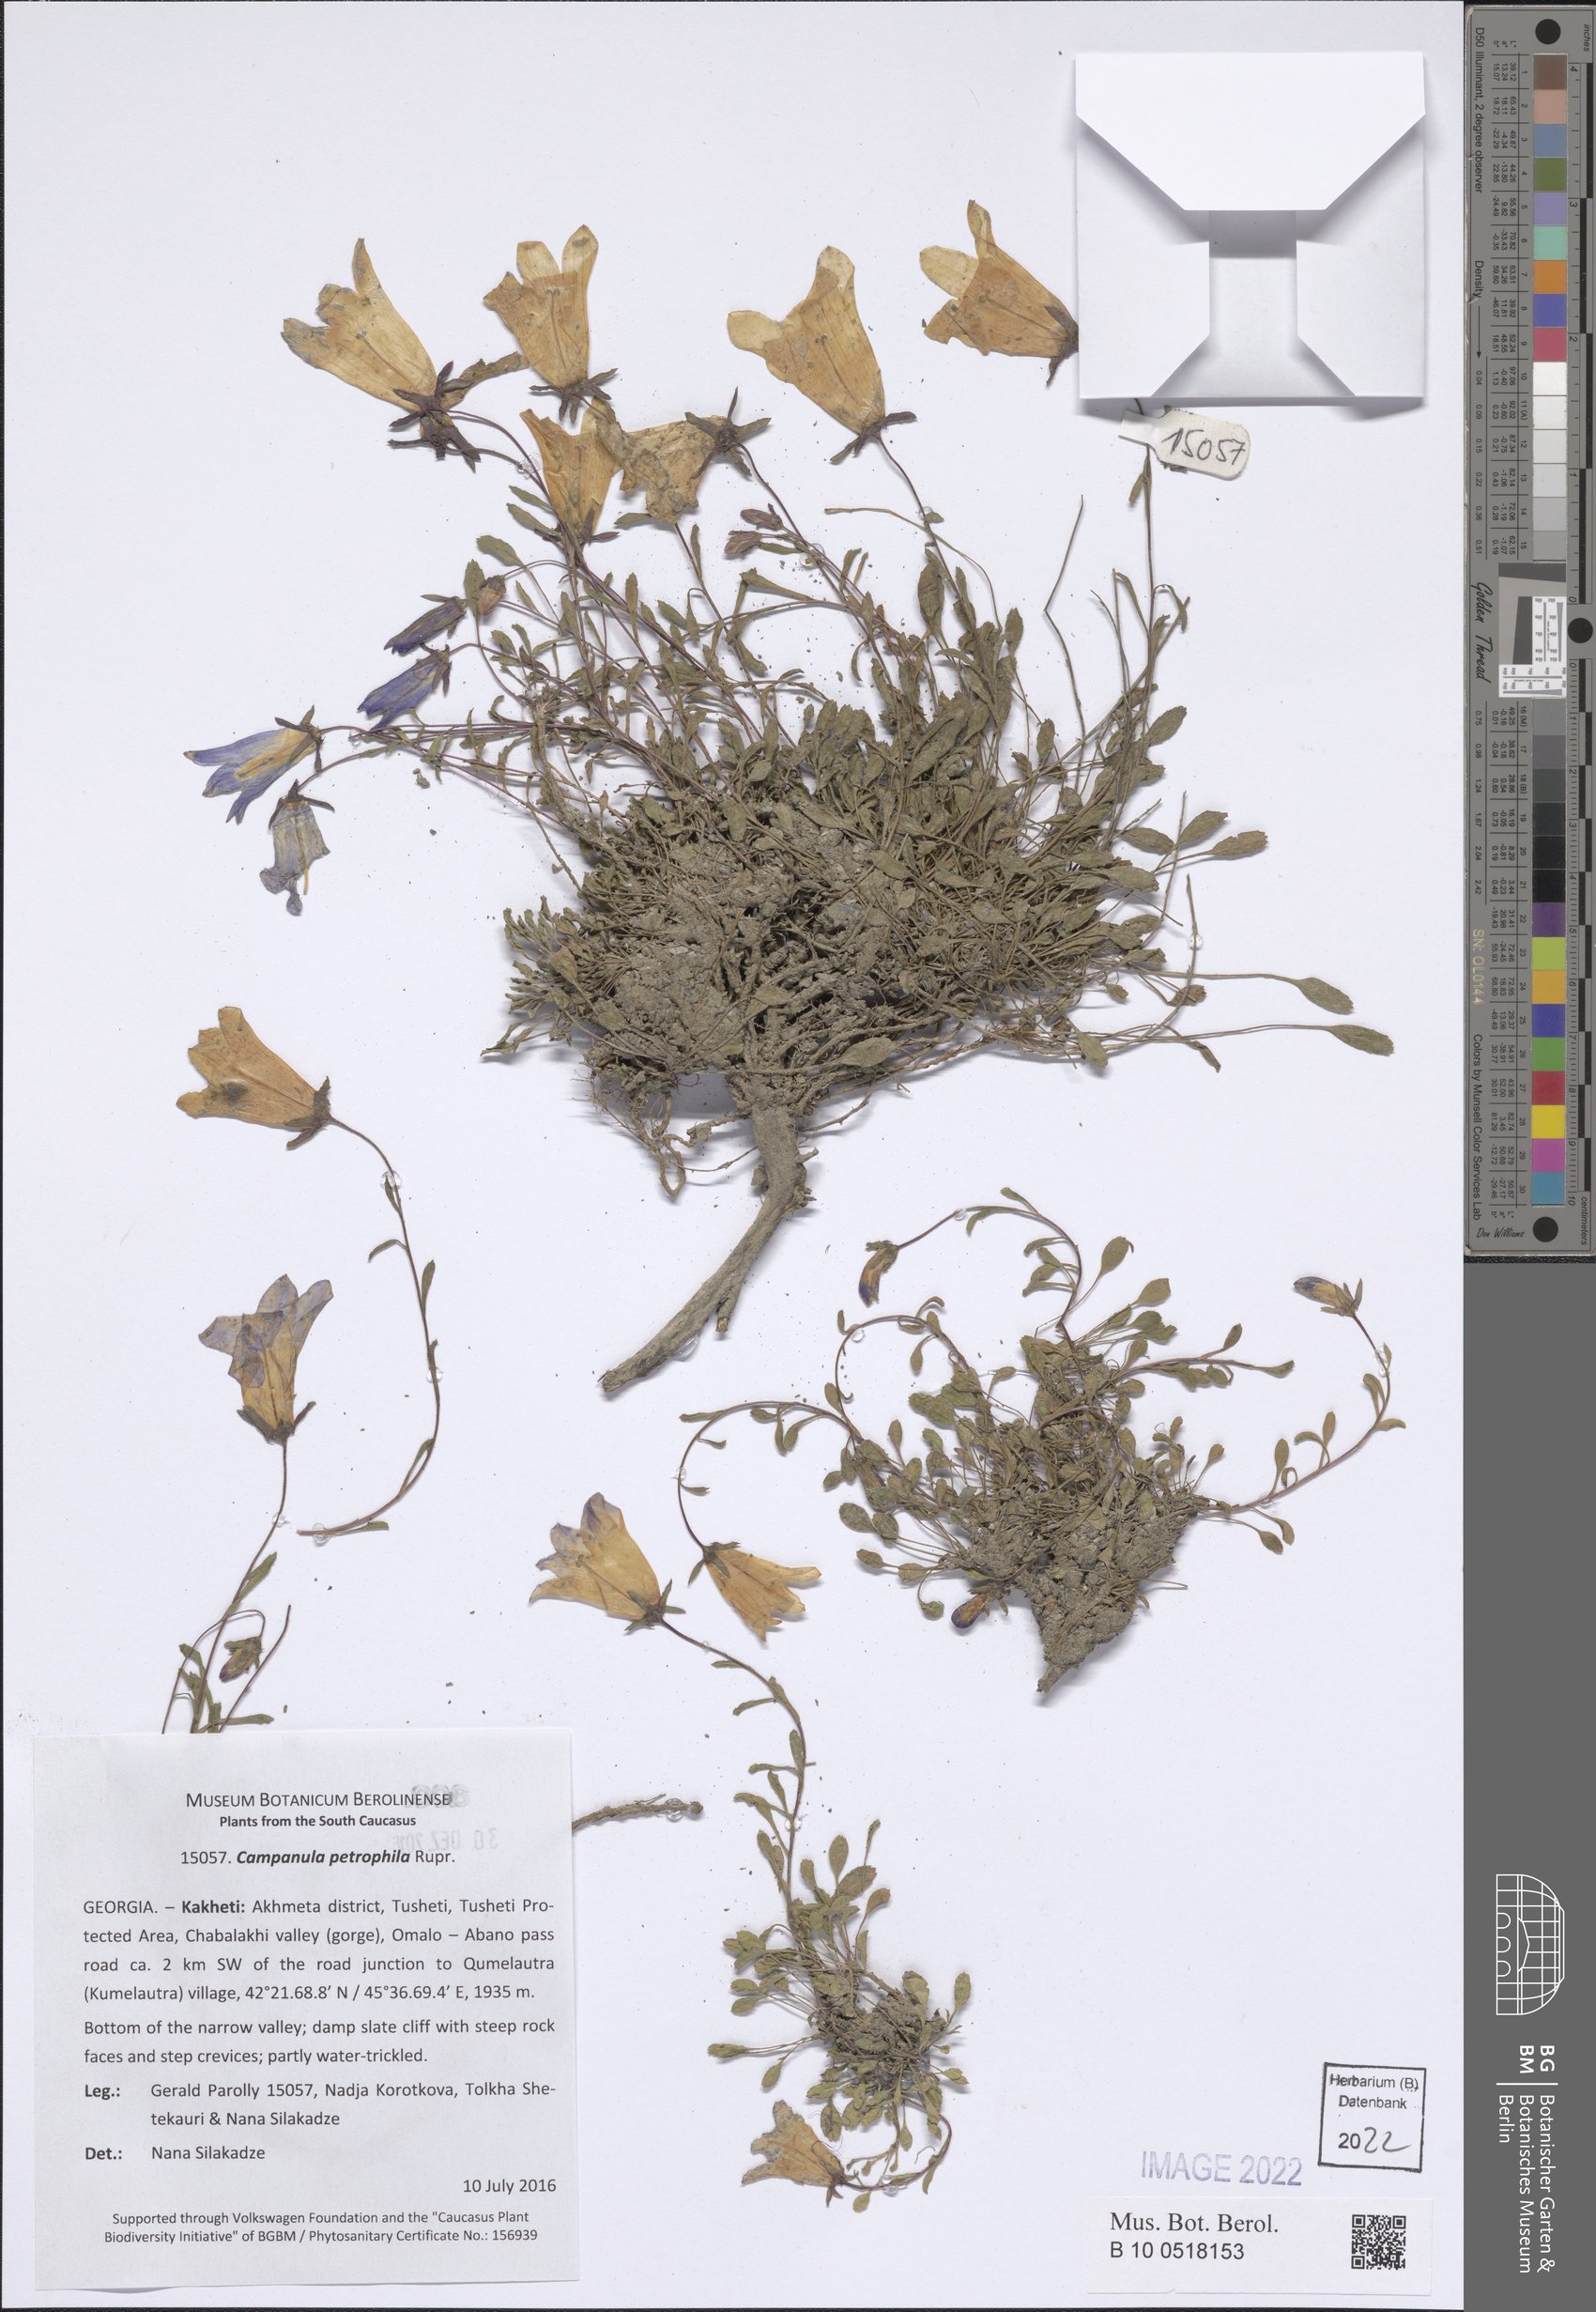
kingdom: Plantae
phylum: Tracheophyta
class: Magnoliopsida
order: Asterales
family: Campanulaceae
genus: Campanula
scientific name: Campanula petrophila
